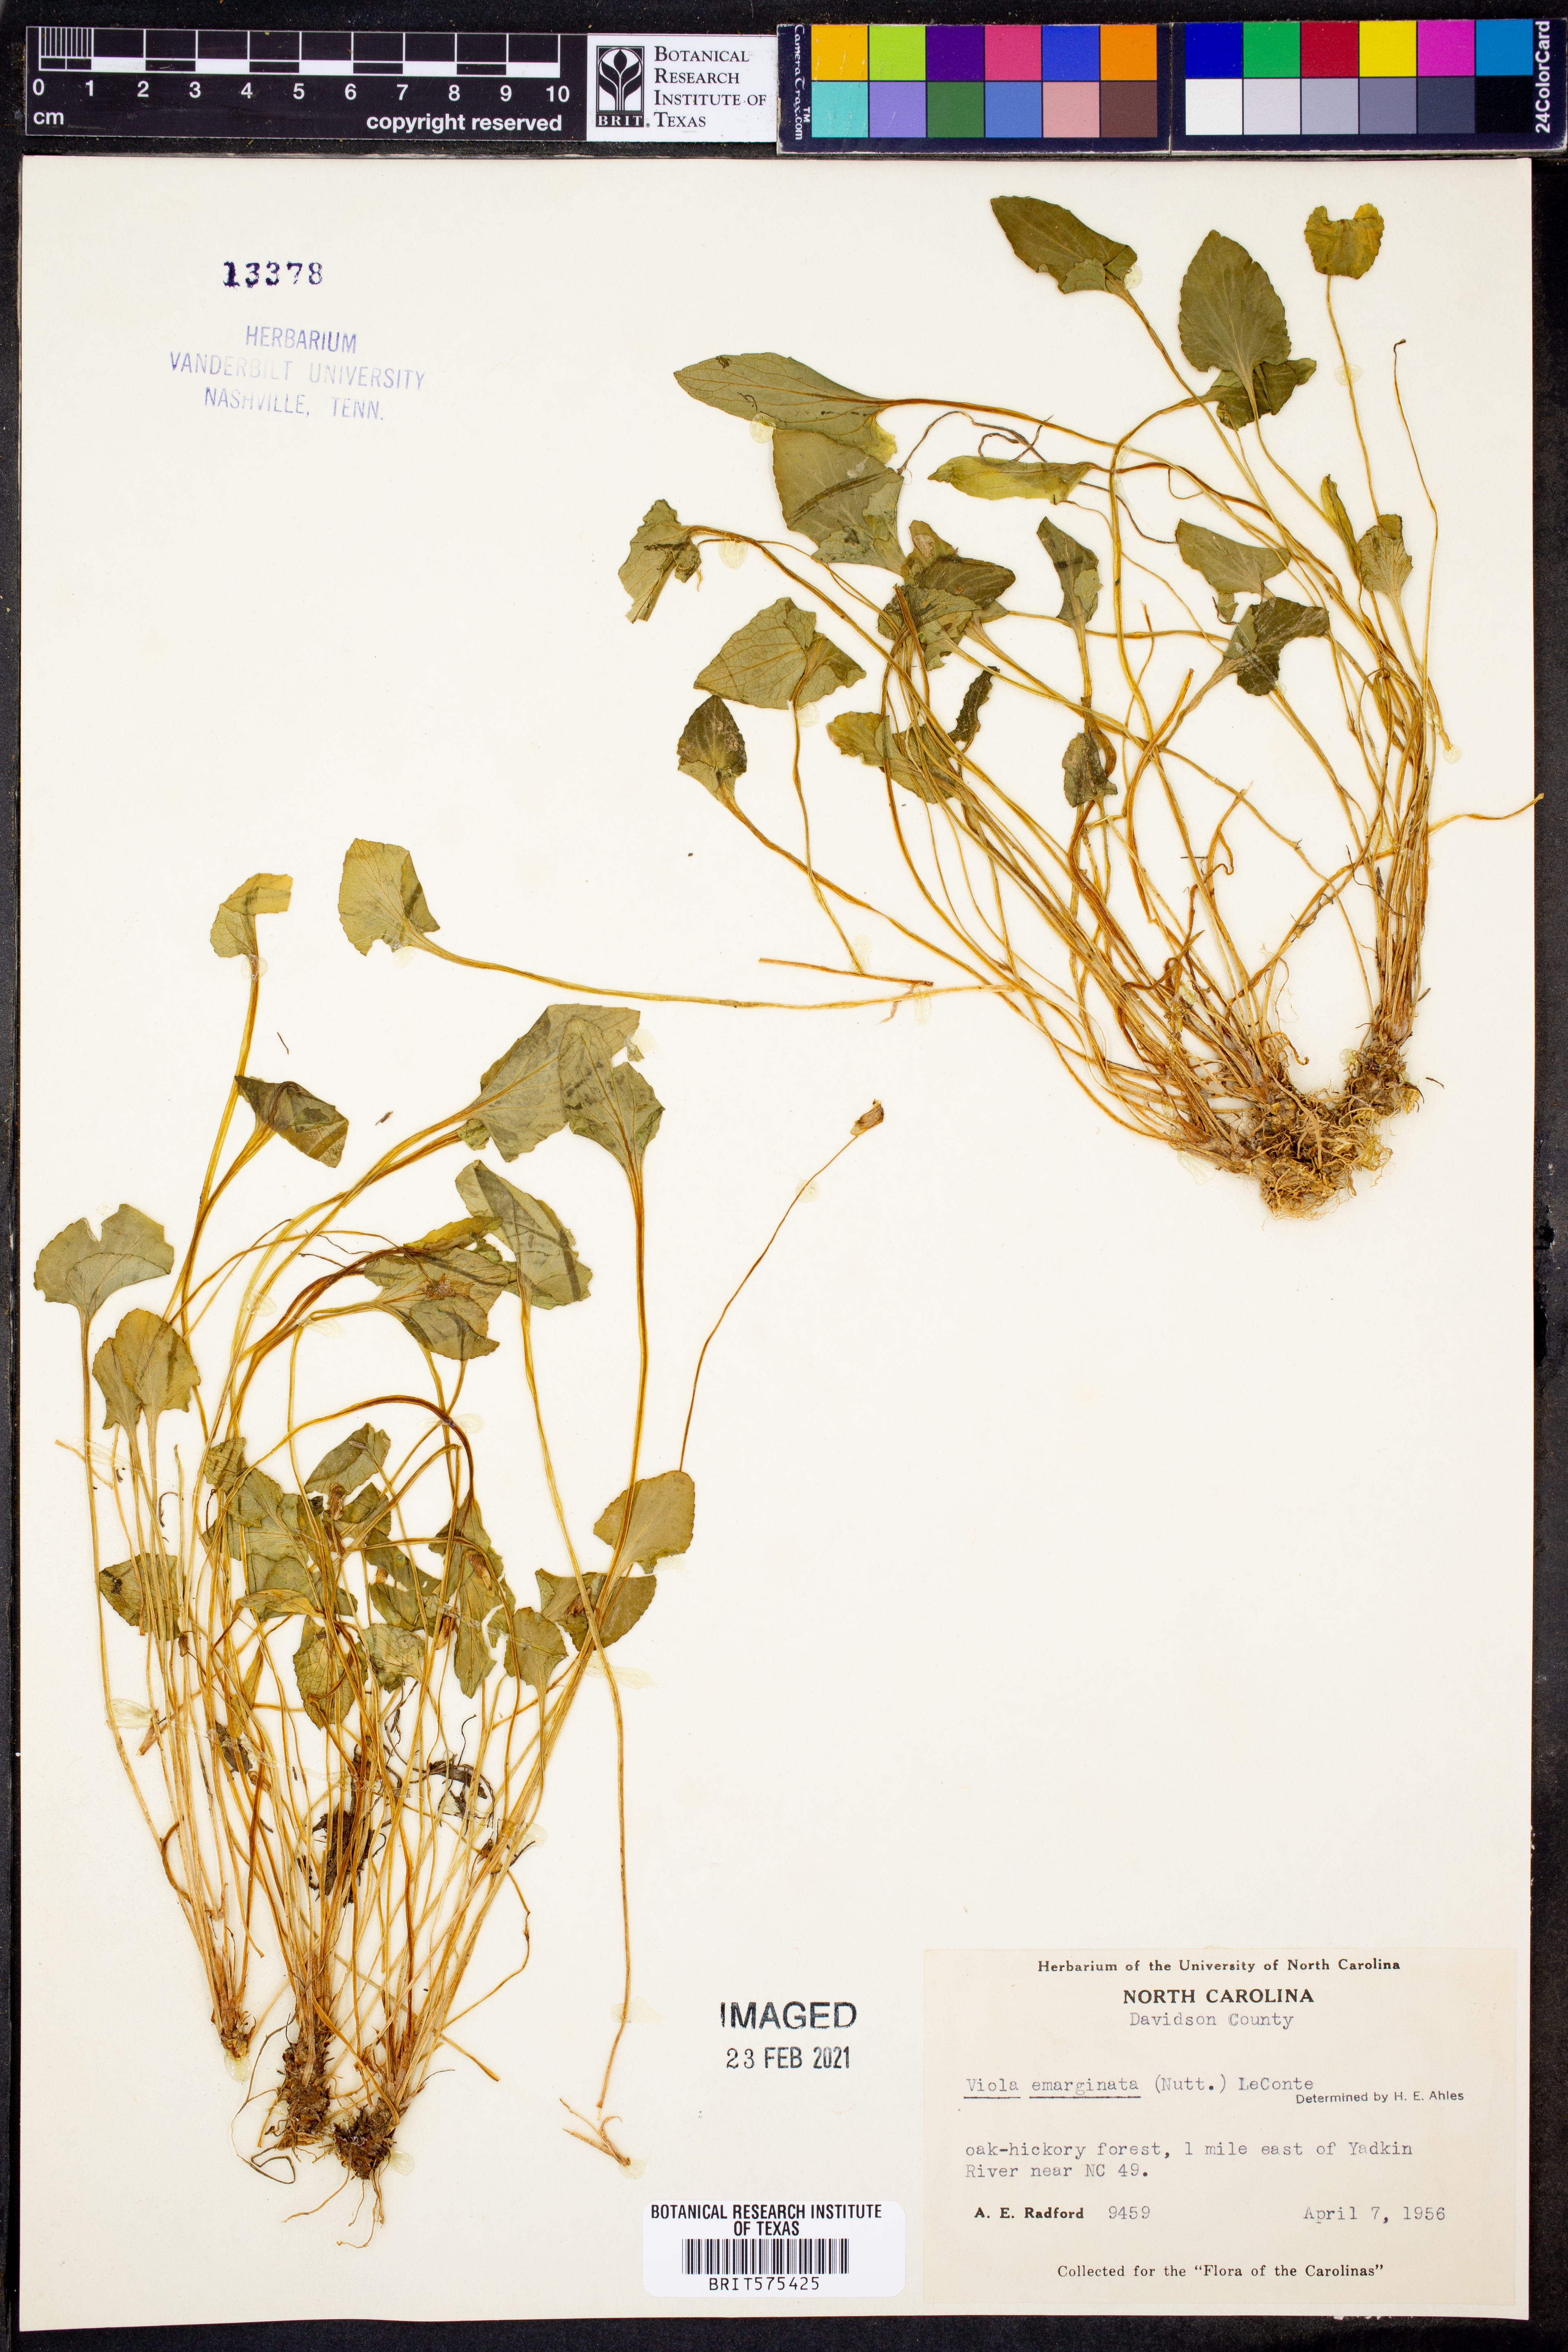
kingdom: Plantae
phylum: Tracheophyta
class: Magnoliopsida
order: Malpighiales
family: Violaceae
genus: Viola
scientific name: Viola emarginata
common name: Triangle-leaved violet
